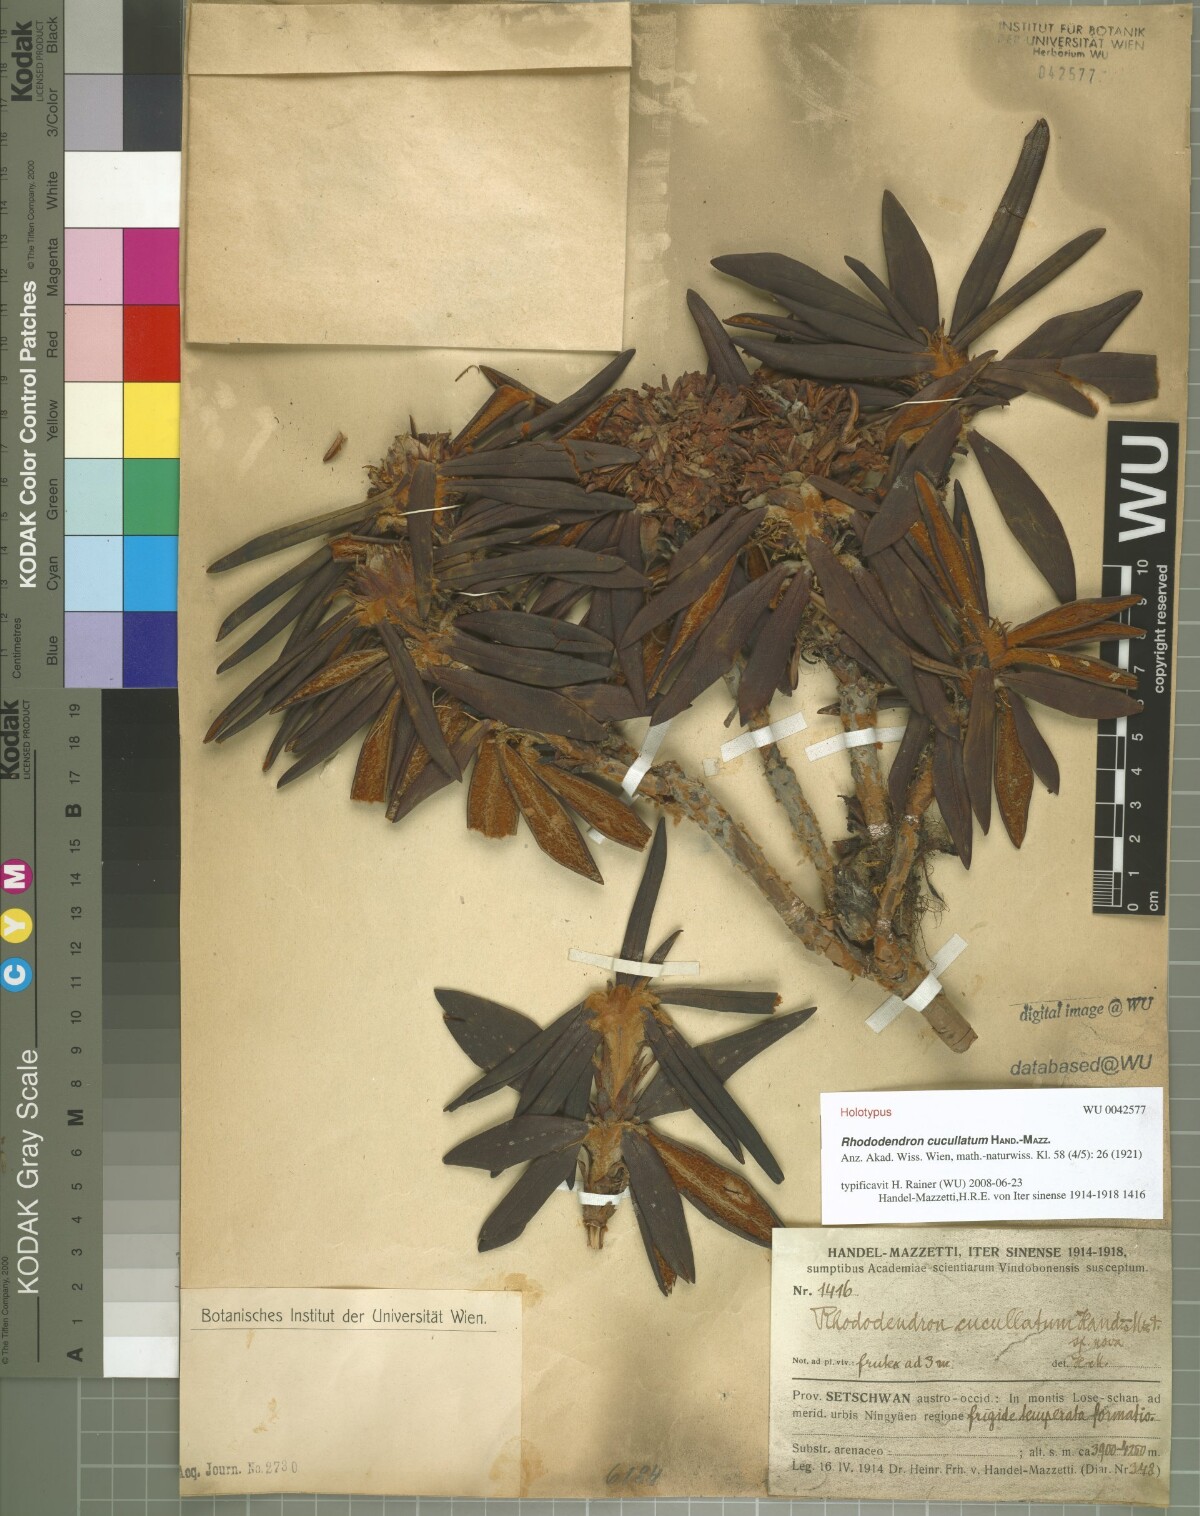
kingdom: Plantae
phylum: Tracheophyta
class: Magnoliopsida
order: Ericales
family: Ericaceae
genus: Rhododendron
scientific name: Rhododendron roxieanum
